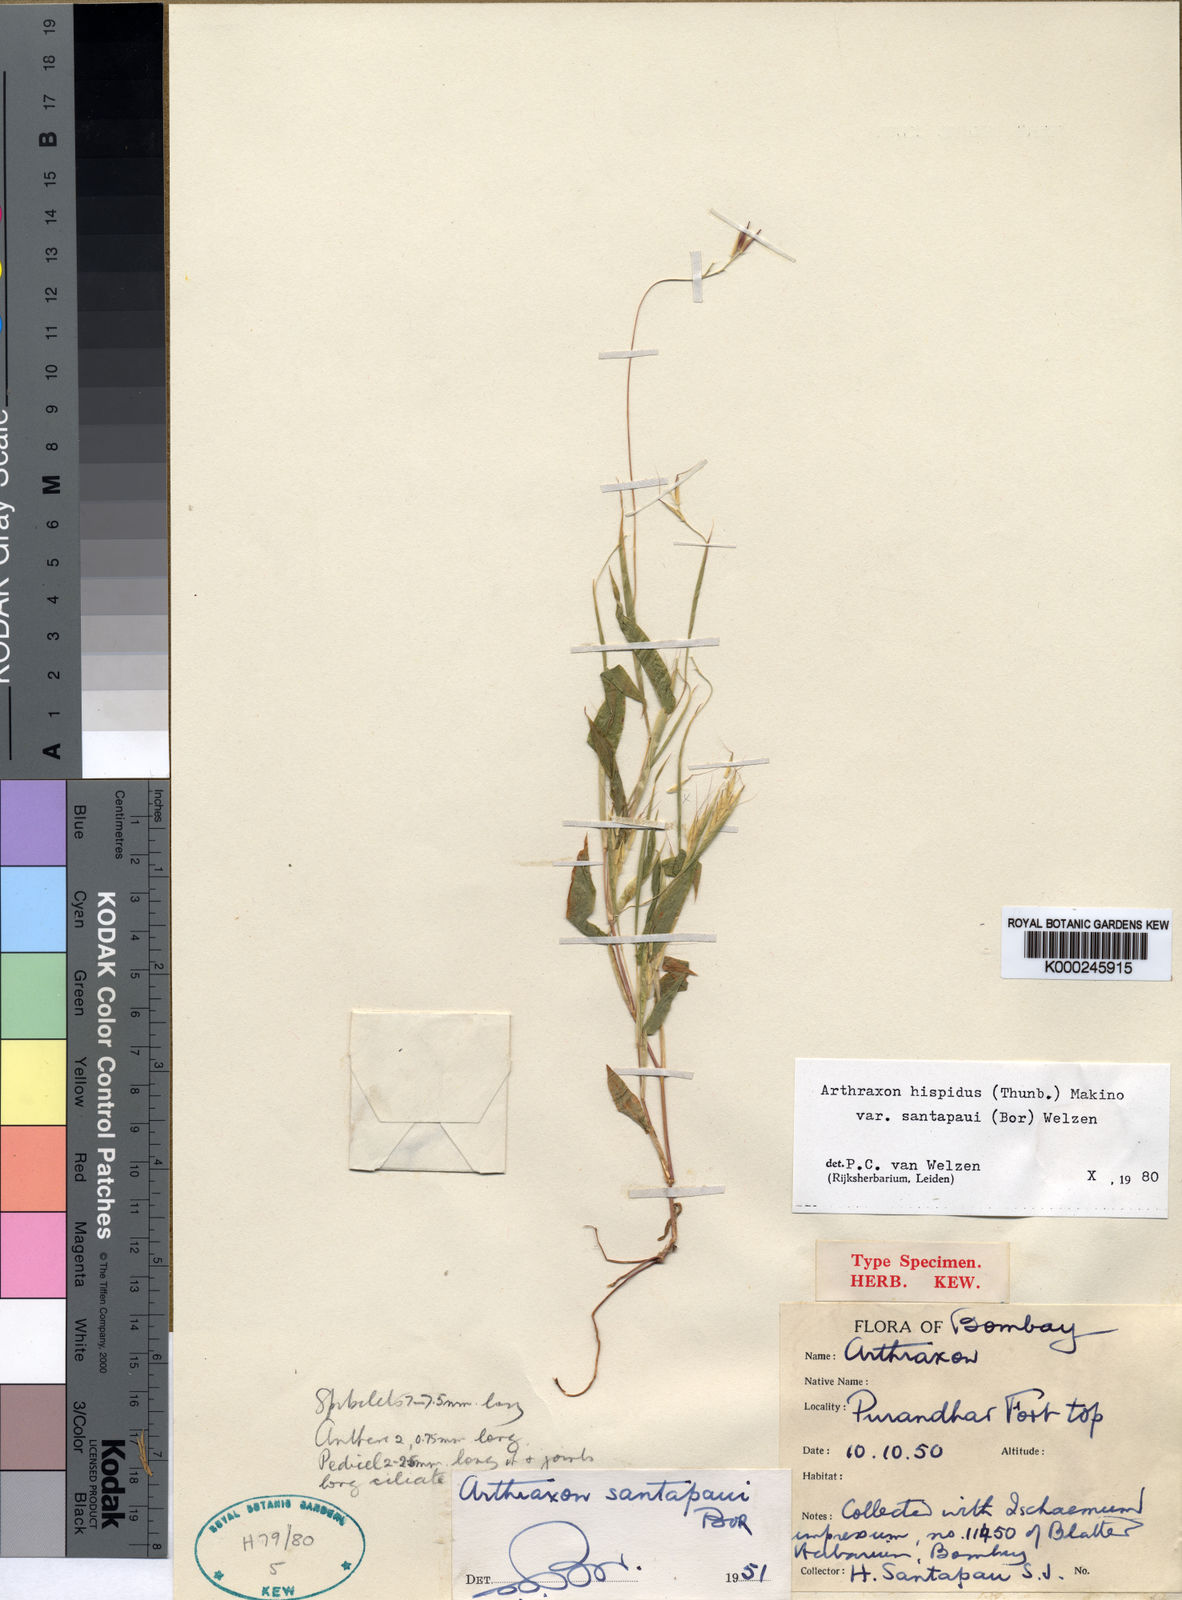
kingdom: Plantae
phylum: Tracheophyta
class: Liliopsida
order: Poales
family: Poaceae
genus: Arthraxon
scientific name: Arthraxon santapaui
